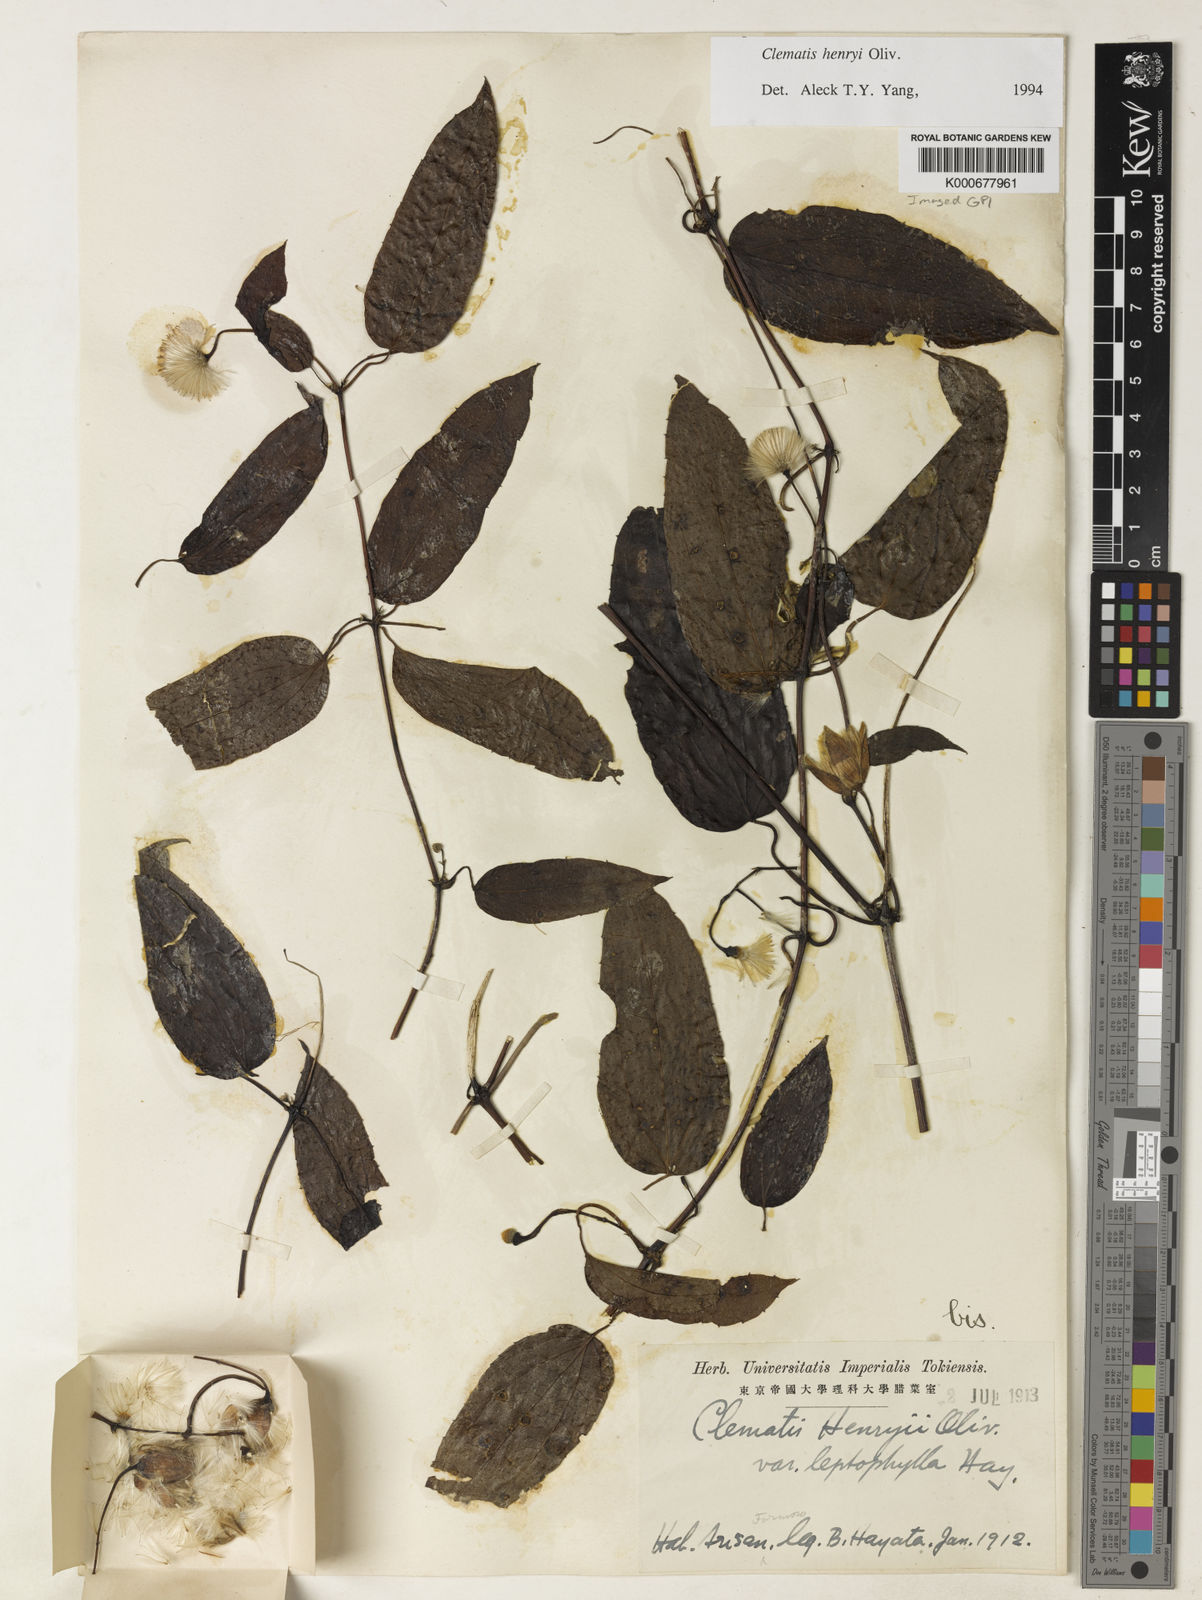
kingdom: Plantae
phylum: Tracheophyta
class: Magnoliopsida
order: Ranunculales
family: Ranunculaceae
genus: Clematis
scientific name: Clematis
